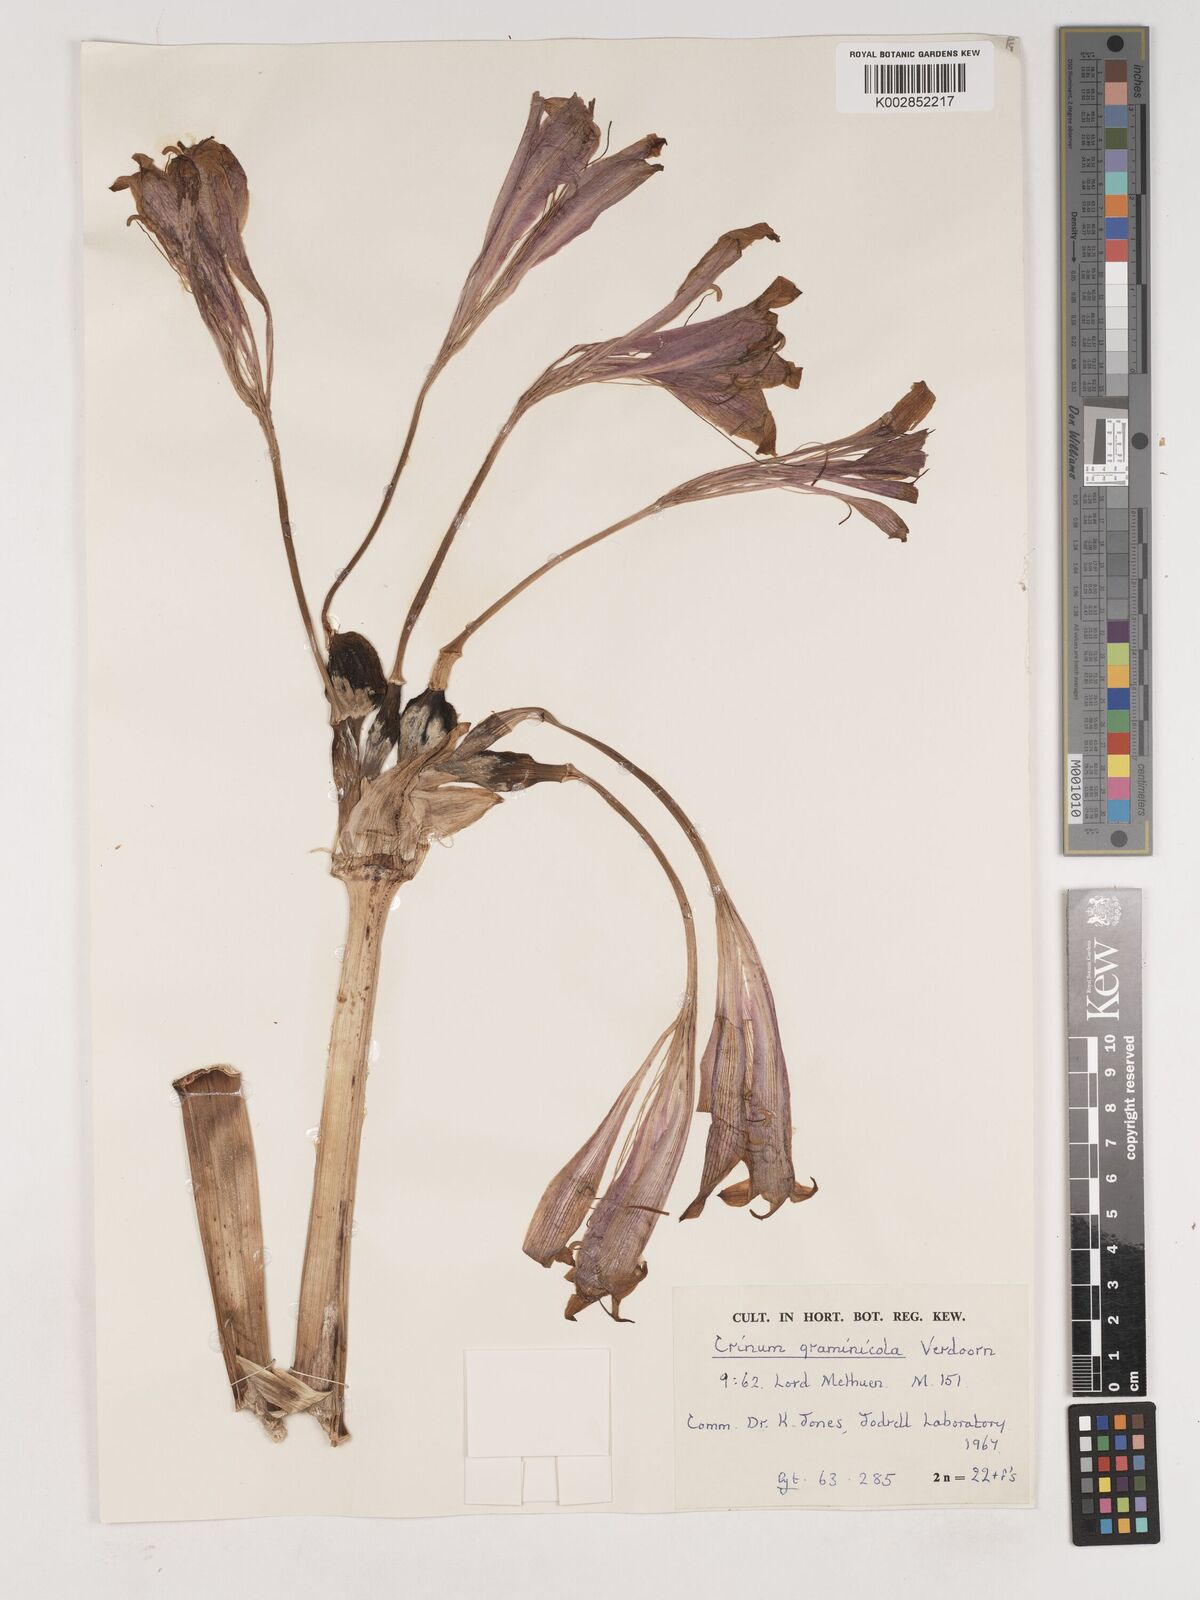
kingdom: Plantae
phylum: Tracheophyta
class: Liliopsida
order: Asparagales
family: Amaryllidaceae
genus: Crinum
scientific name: Crinum graminicola
